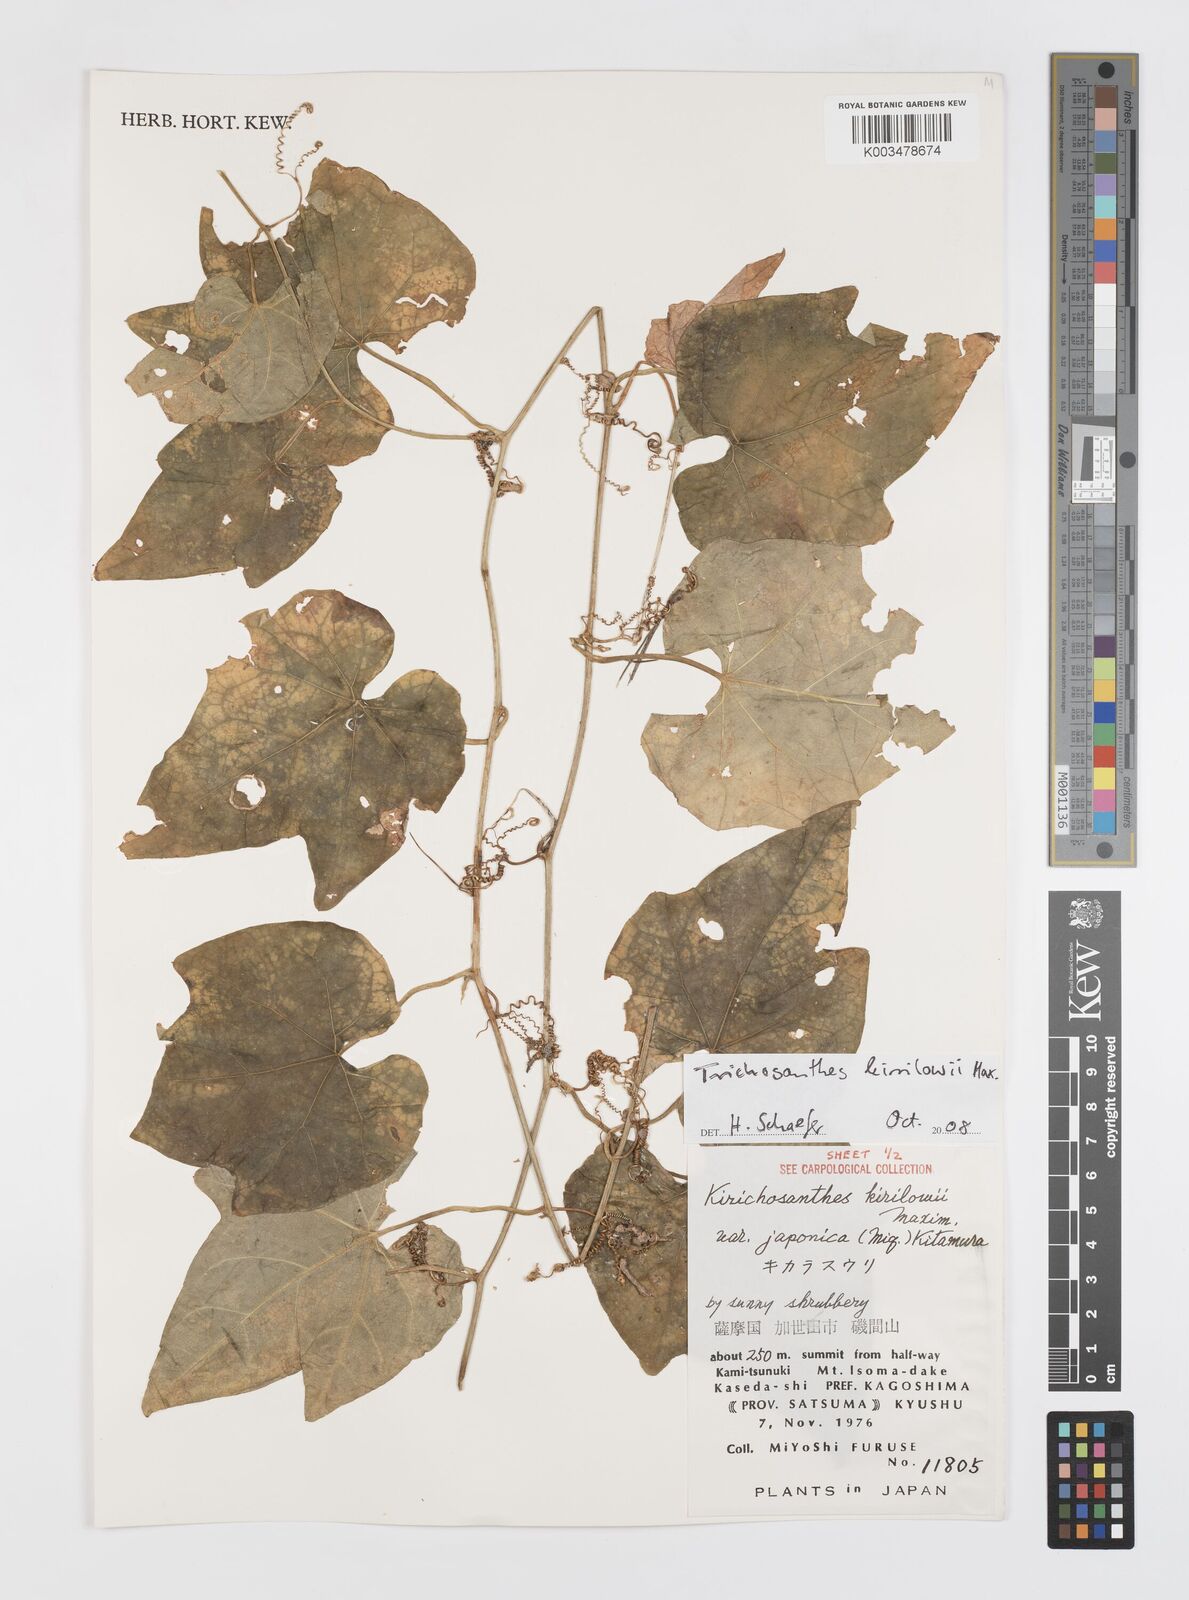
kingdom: Plantae
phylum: Tracheophyta
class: Magnoliopsida
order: Cucurbitales
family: Cucurbitaceae
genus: Trichosanthes
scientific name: Trichosanthes kirilowii
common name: Chinese-cucumber
